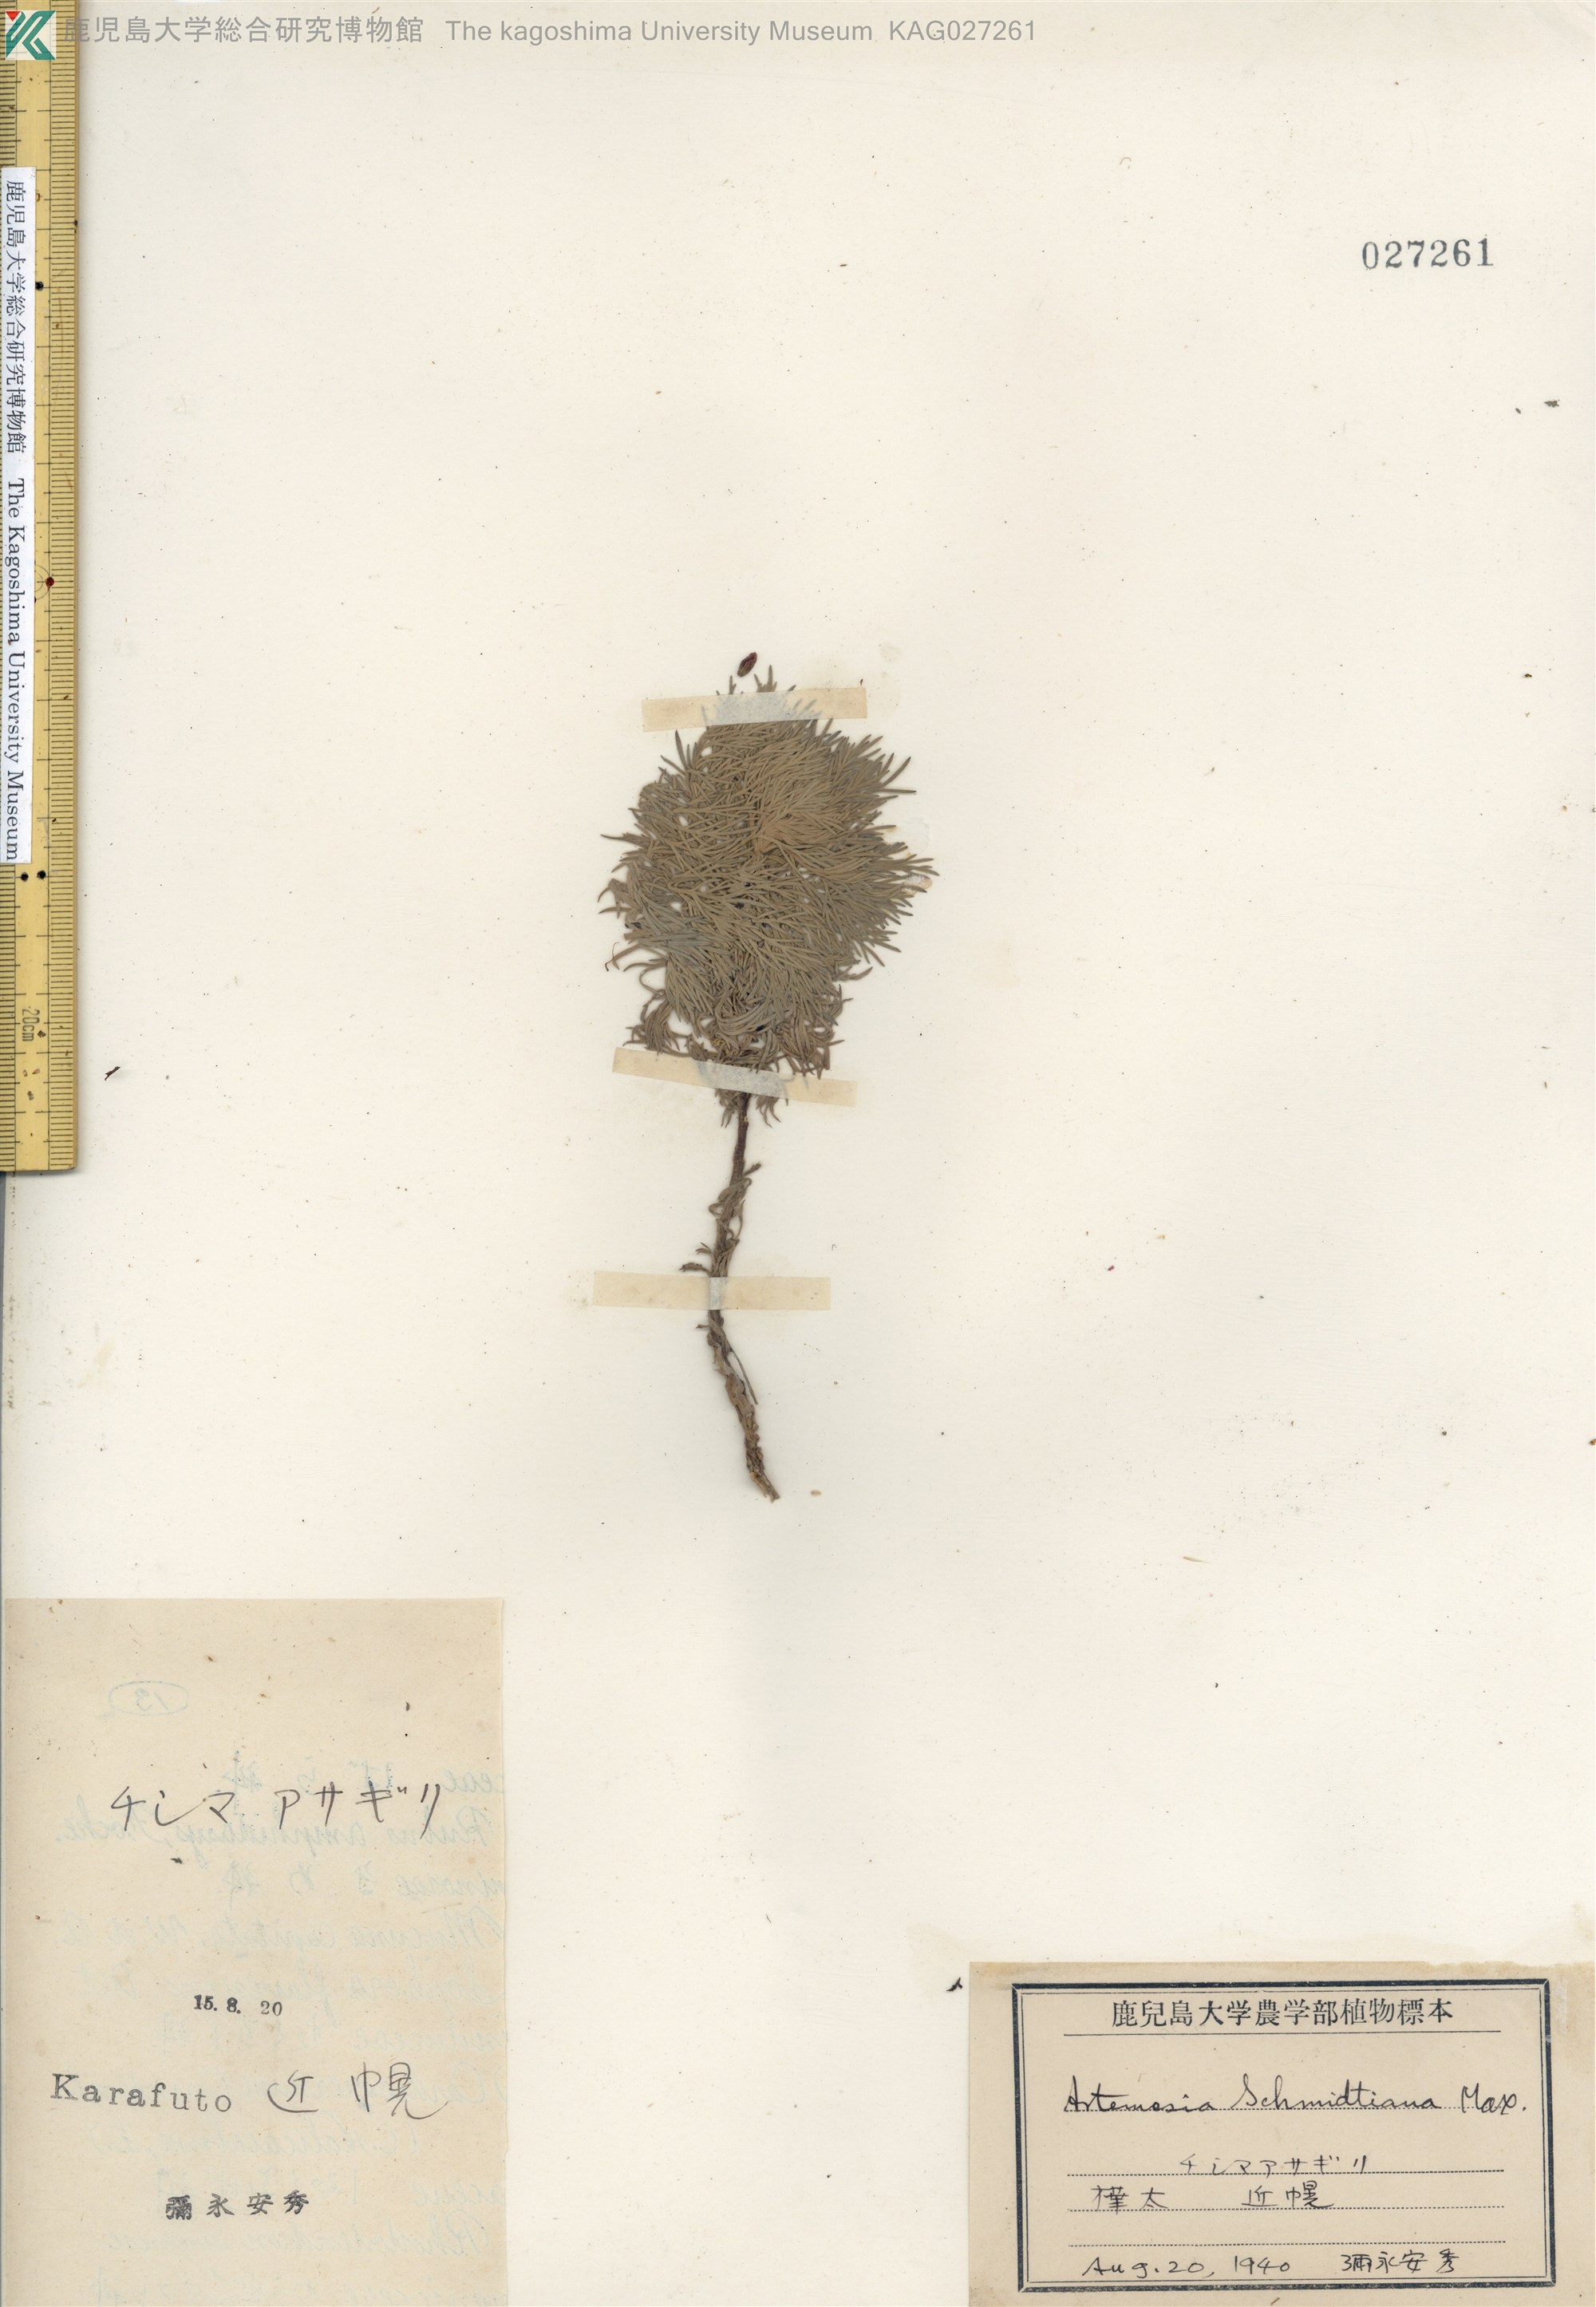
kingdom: Plantae
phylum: Tracheophyta
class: Magnoliopsida
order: Asterales
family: Asteraceae
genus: Artemisia
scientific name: Artemisia schmidtiana
